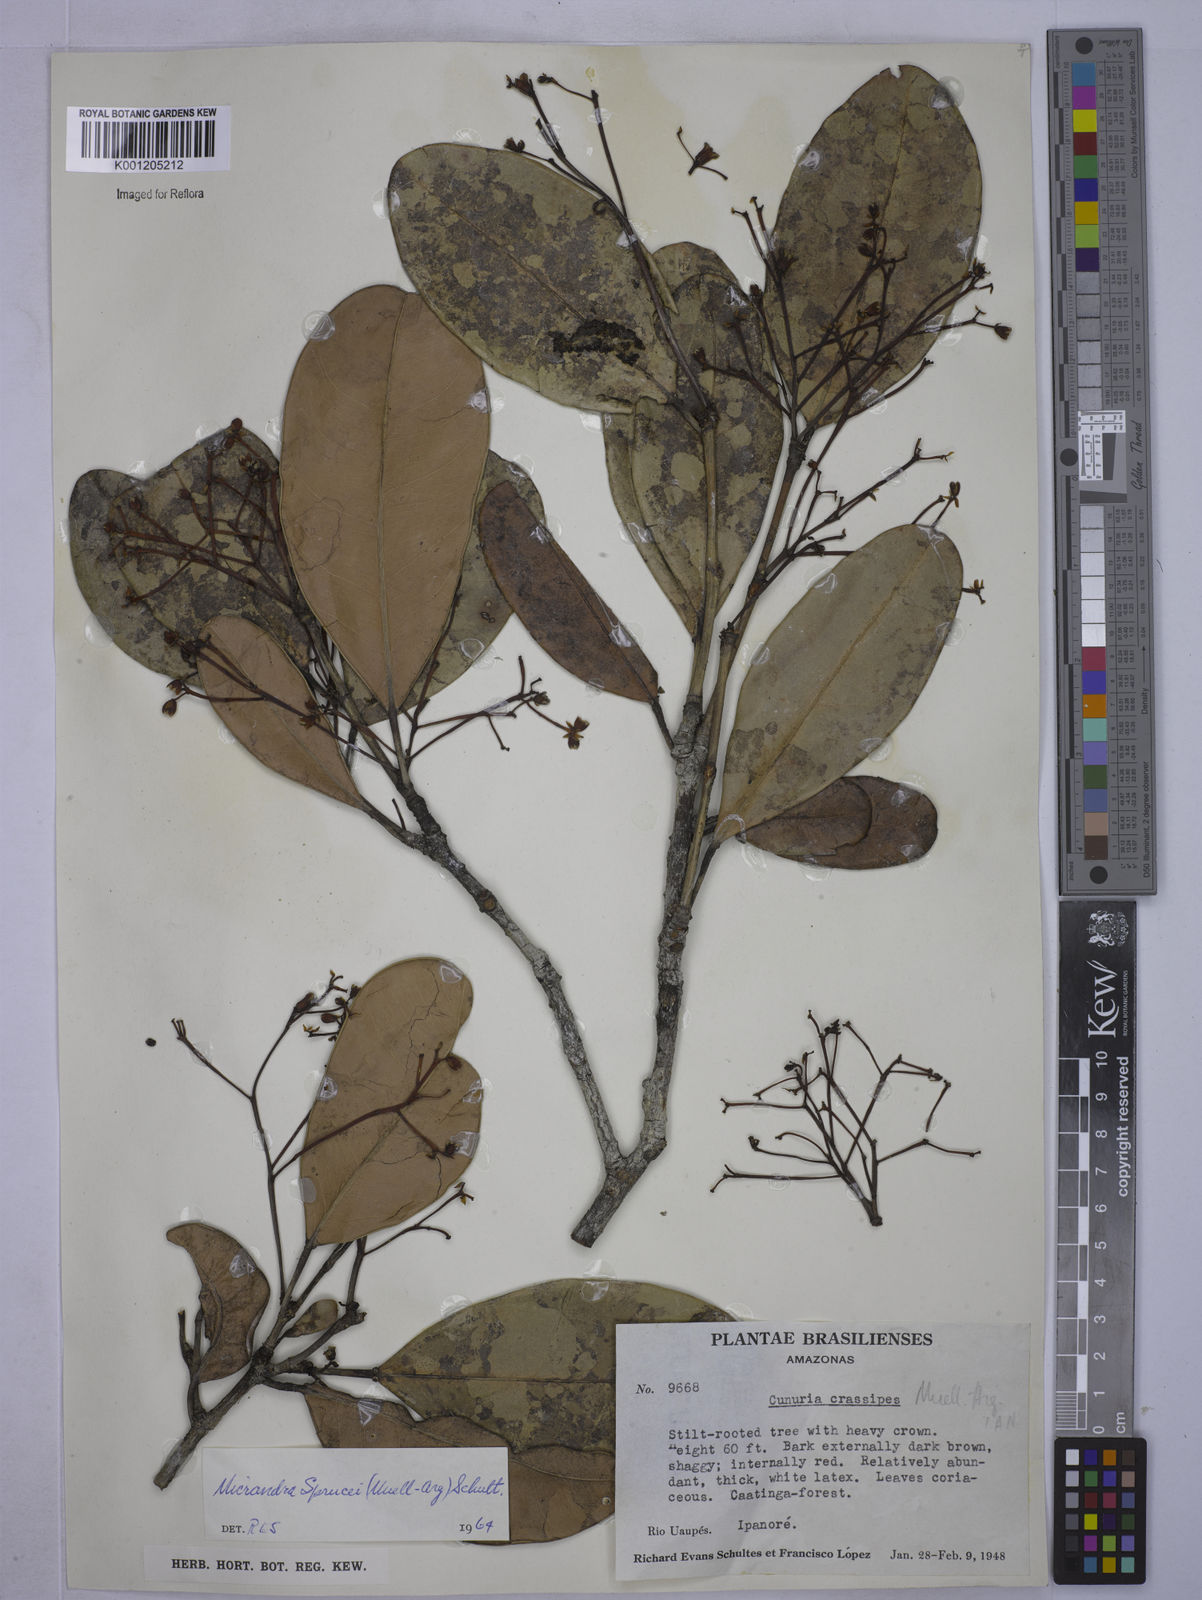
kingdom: Plantae
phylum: Tracheophyta
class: Magnoliopsida
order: Malpighiales
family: Euphorbiaceae
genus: Micrandra
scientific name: Micrandra
